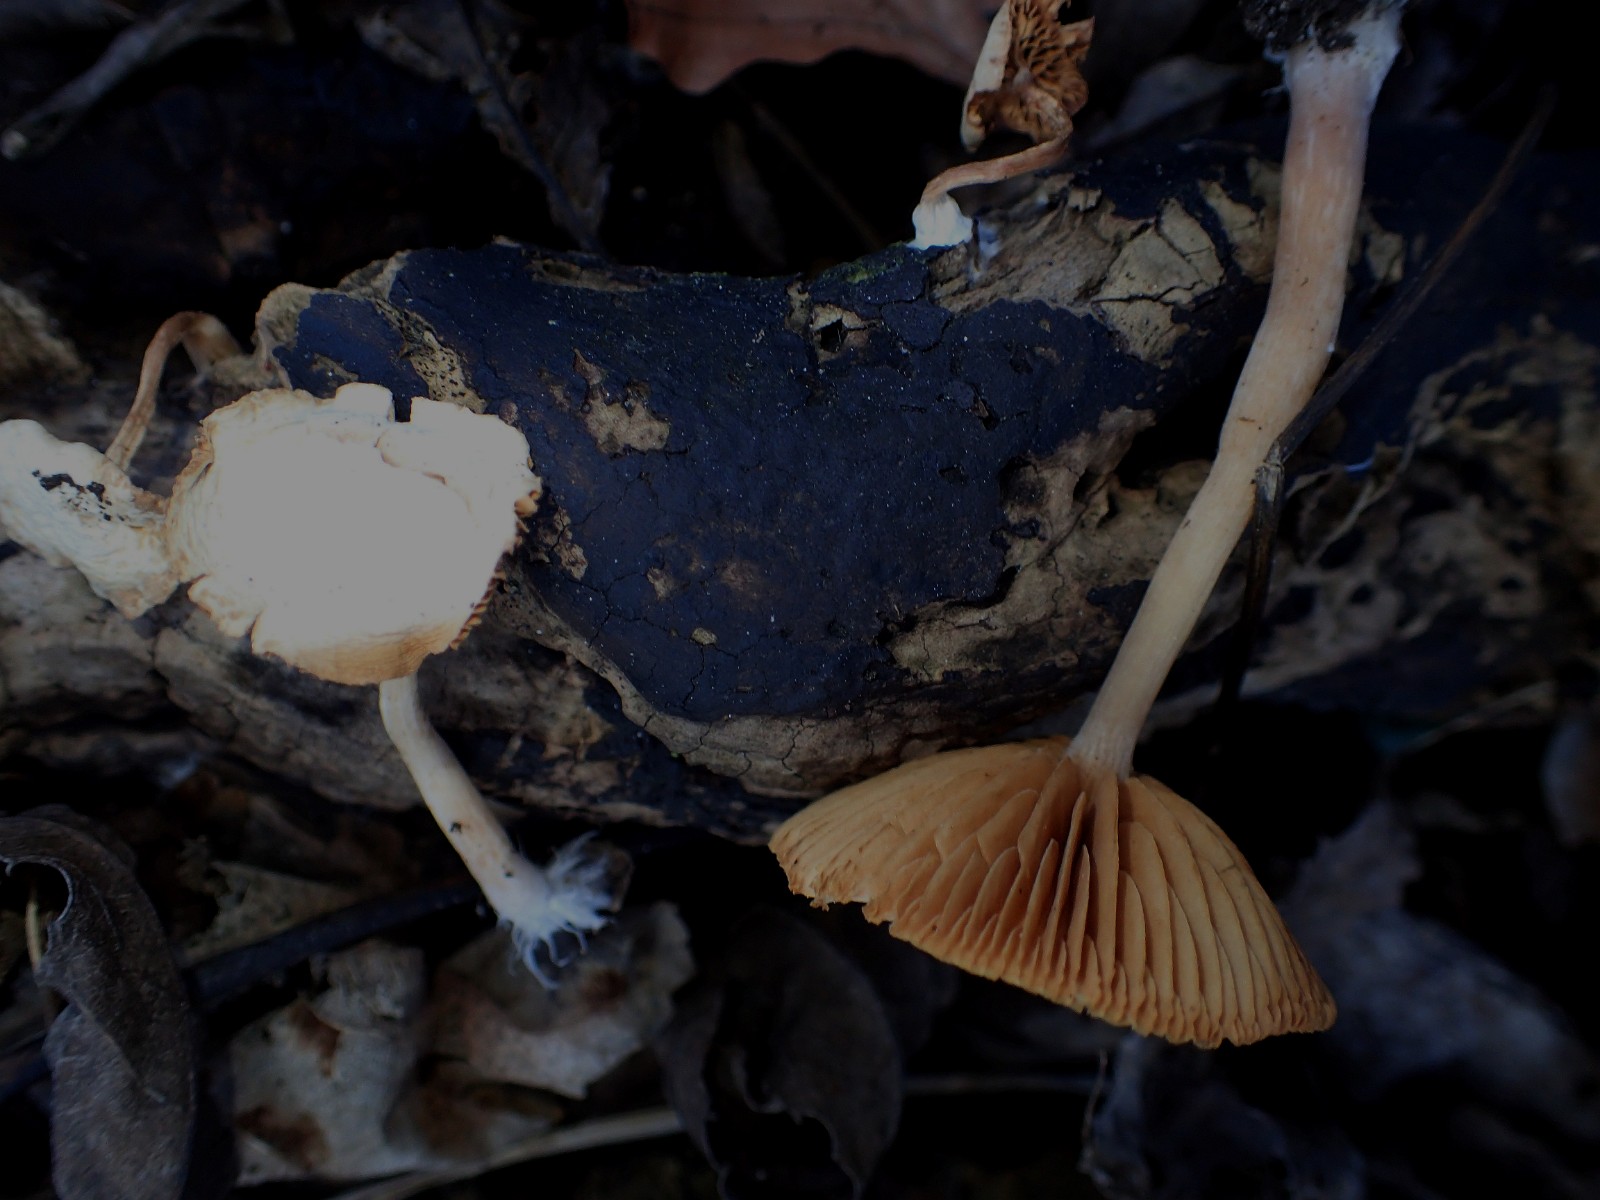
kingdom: Fungi
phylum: Basidiomycota
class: Agaricomycetes
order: Agaricales
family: Tubariaceae
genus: Tubaria
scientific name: Tubaria furfuracea
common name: kliddet fnughat
